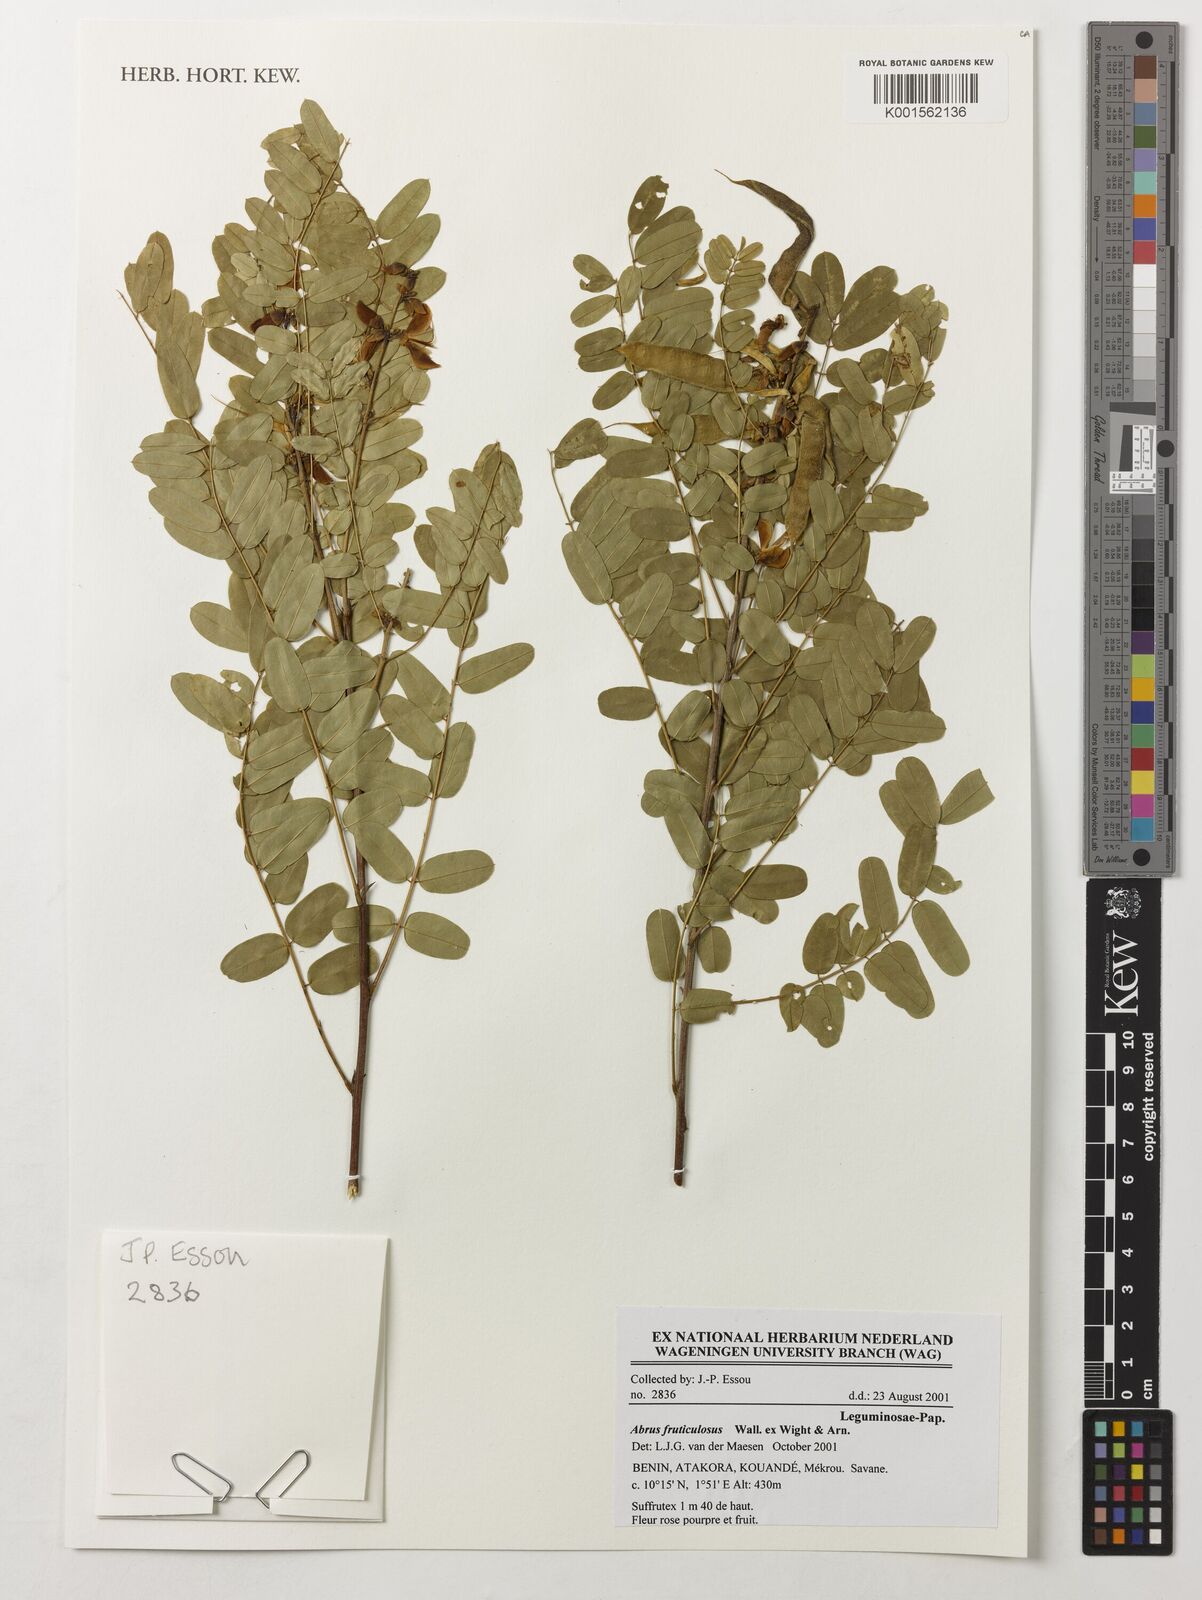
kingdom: Plantae
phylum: Tracheophyta
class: Magnoliopsida
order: Fabales
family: Fabaceae
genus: Abrus
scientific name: Abrus fruticulosus
